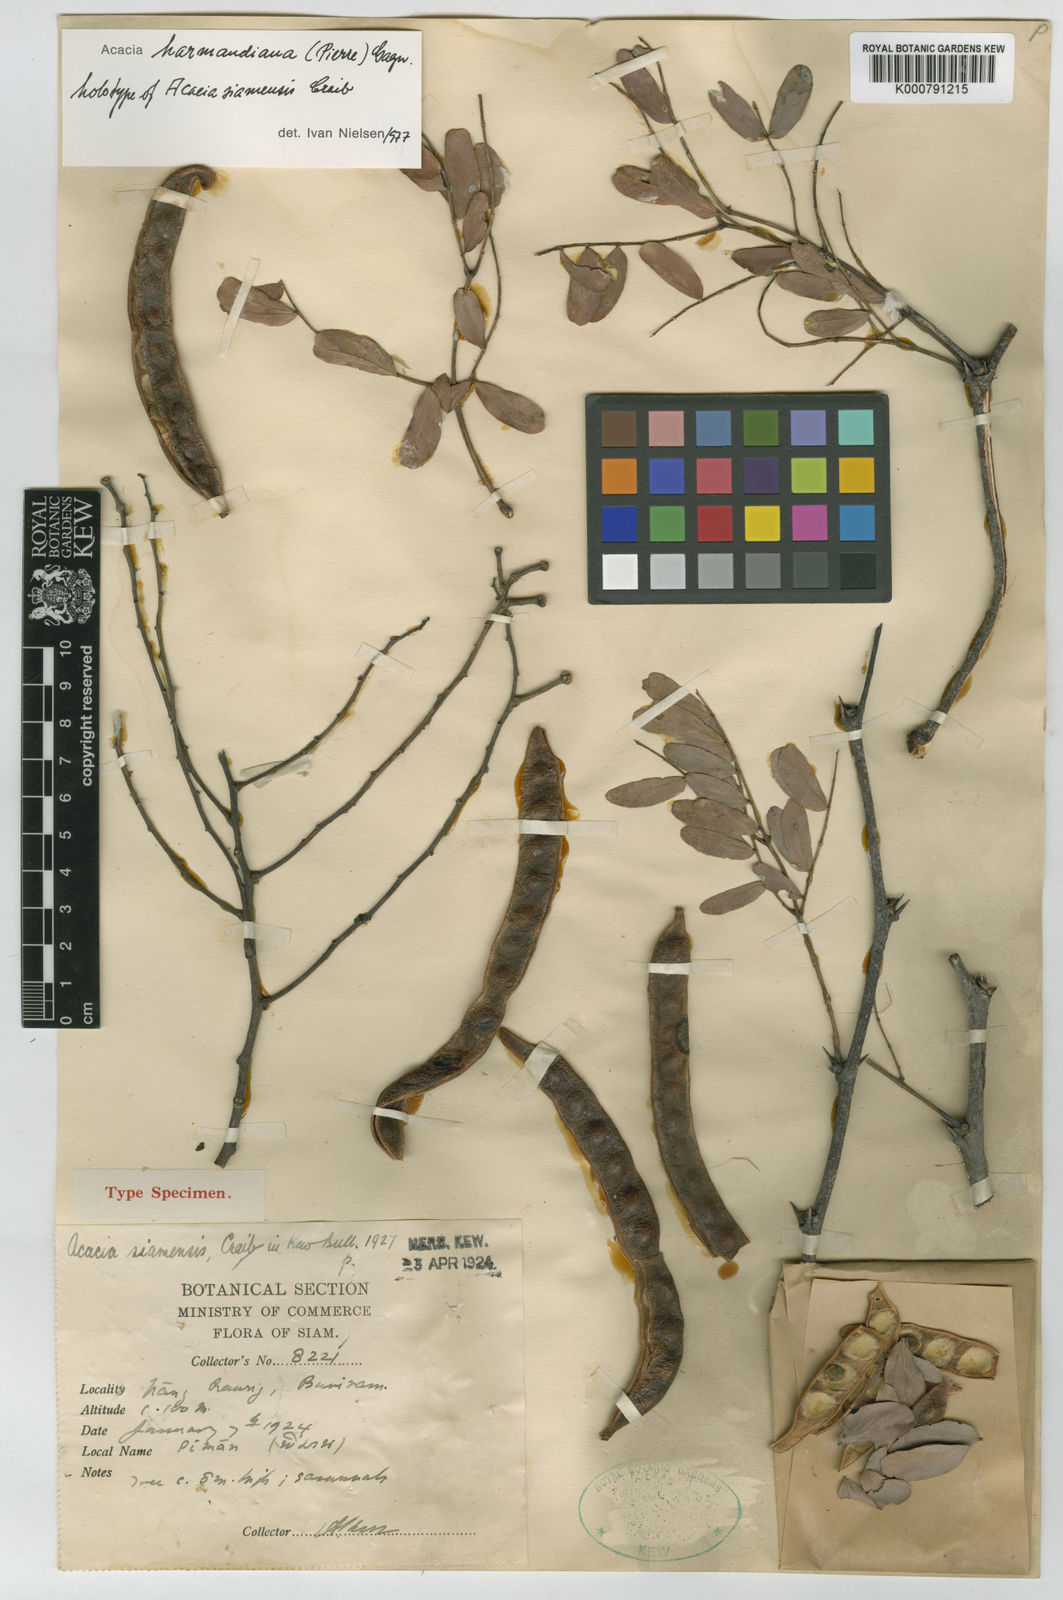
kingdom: Plantae
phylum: Tracheophyta
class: Magnoliopsida
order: Fabales
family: Fabaceae
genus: Vachellia
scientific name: Vachellia harmandiana
